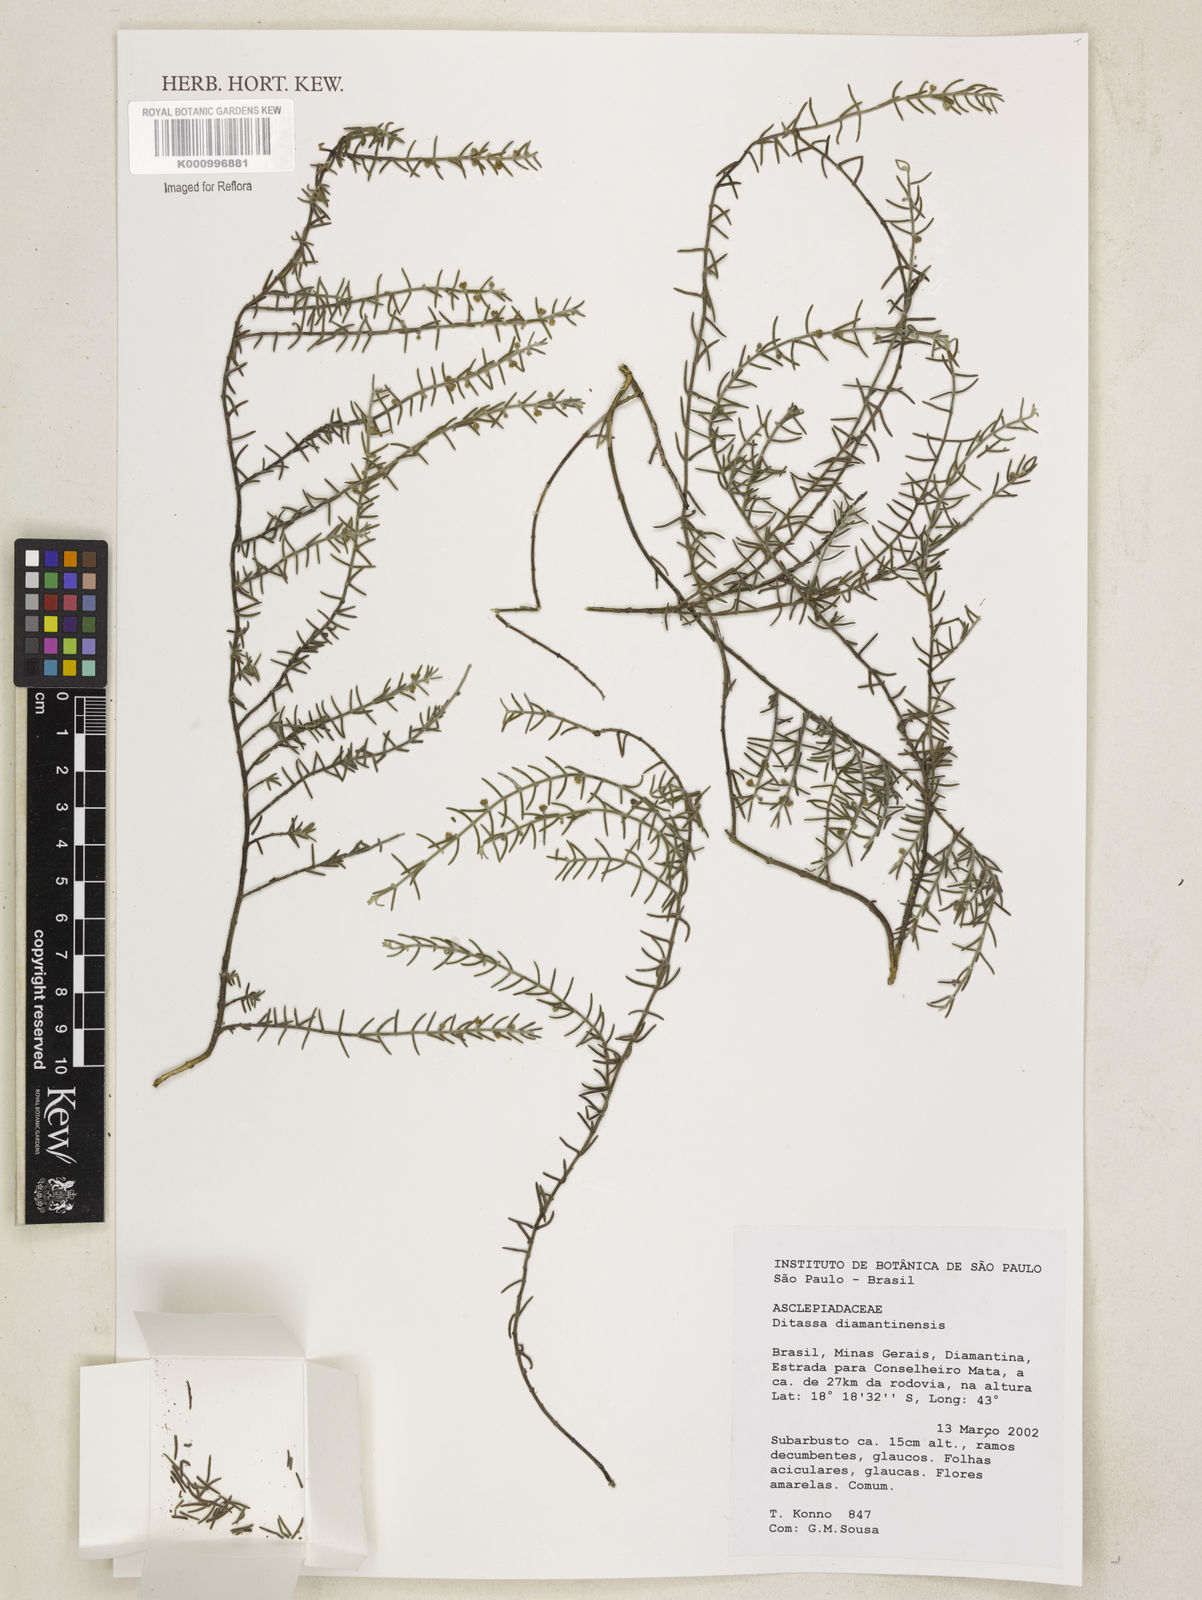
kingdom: Plantae
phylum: Tracheophyta
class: Magnoliopsida
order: Gentianales
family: Apocynaceae
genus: Minaria
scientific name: Minaria diamantinensis
